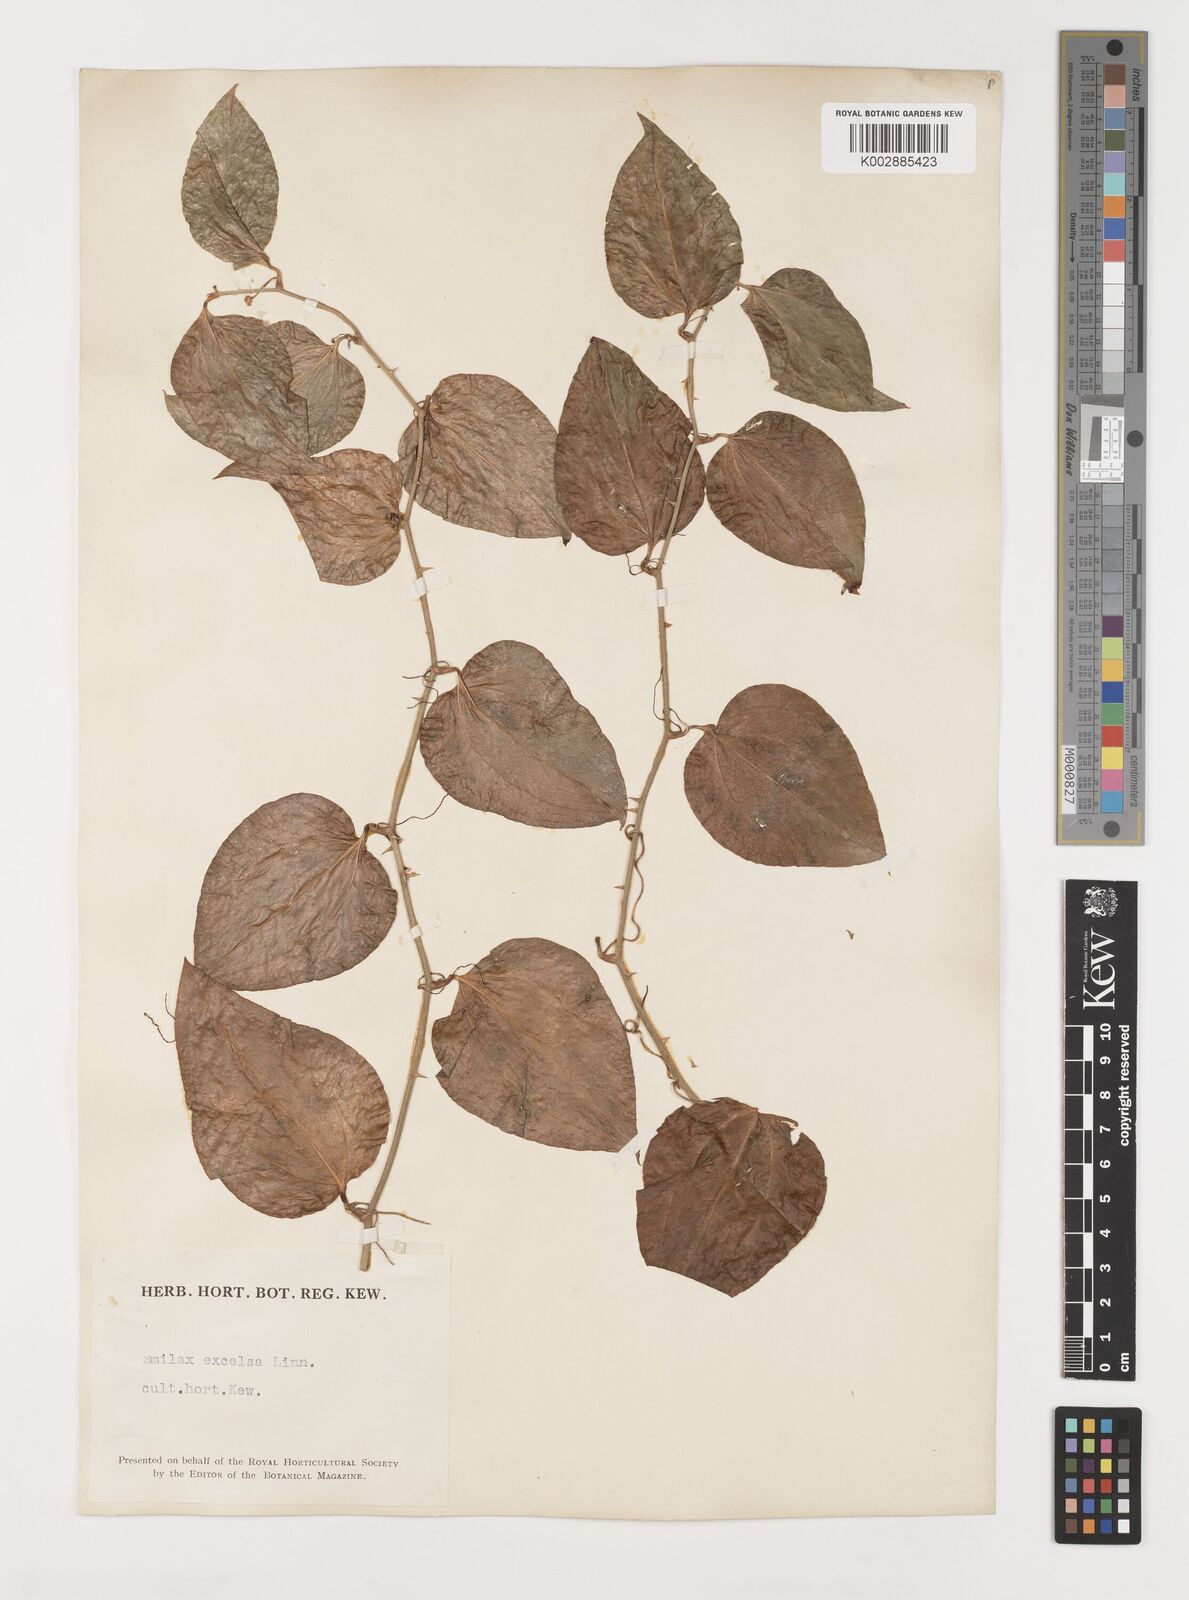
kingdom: Plantae
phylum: Tracheophyta
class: Liliopsida
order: Liliales
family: Smilacaceae
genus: Smilax
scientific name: Smilax excelsa
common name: Larger smilax
